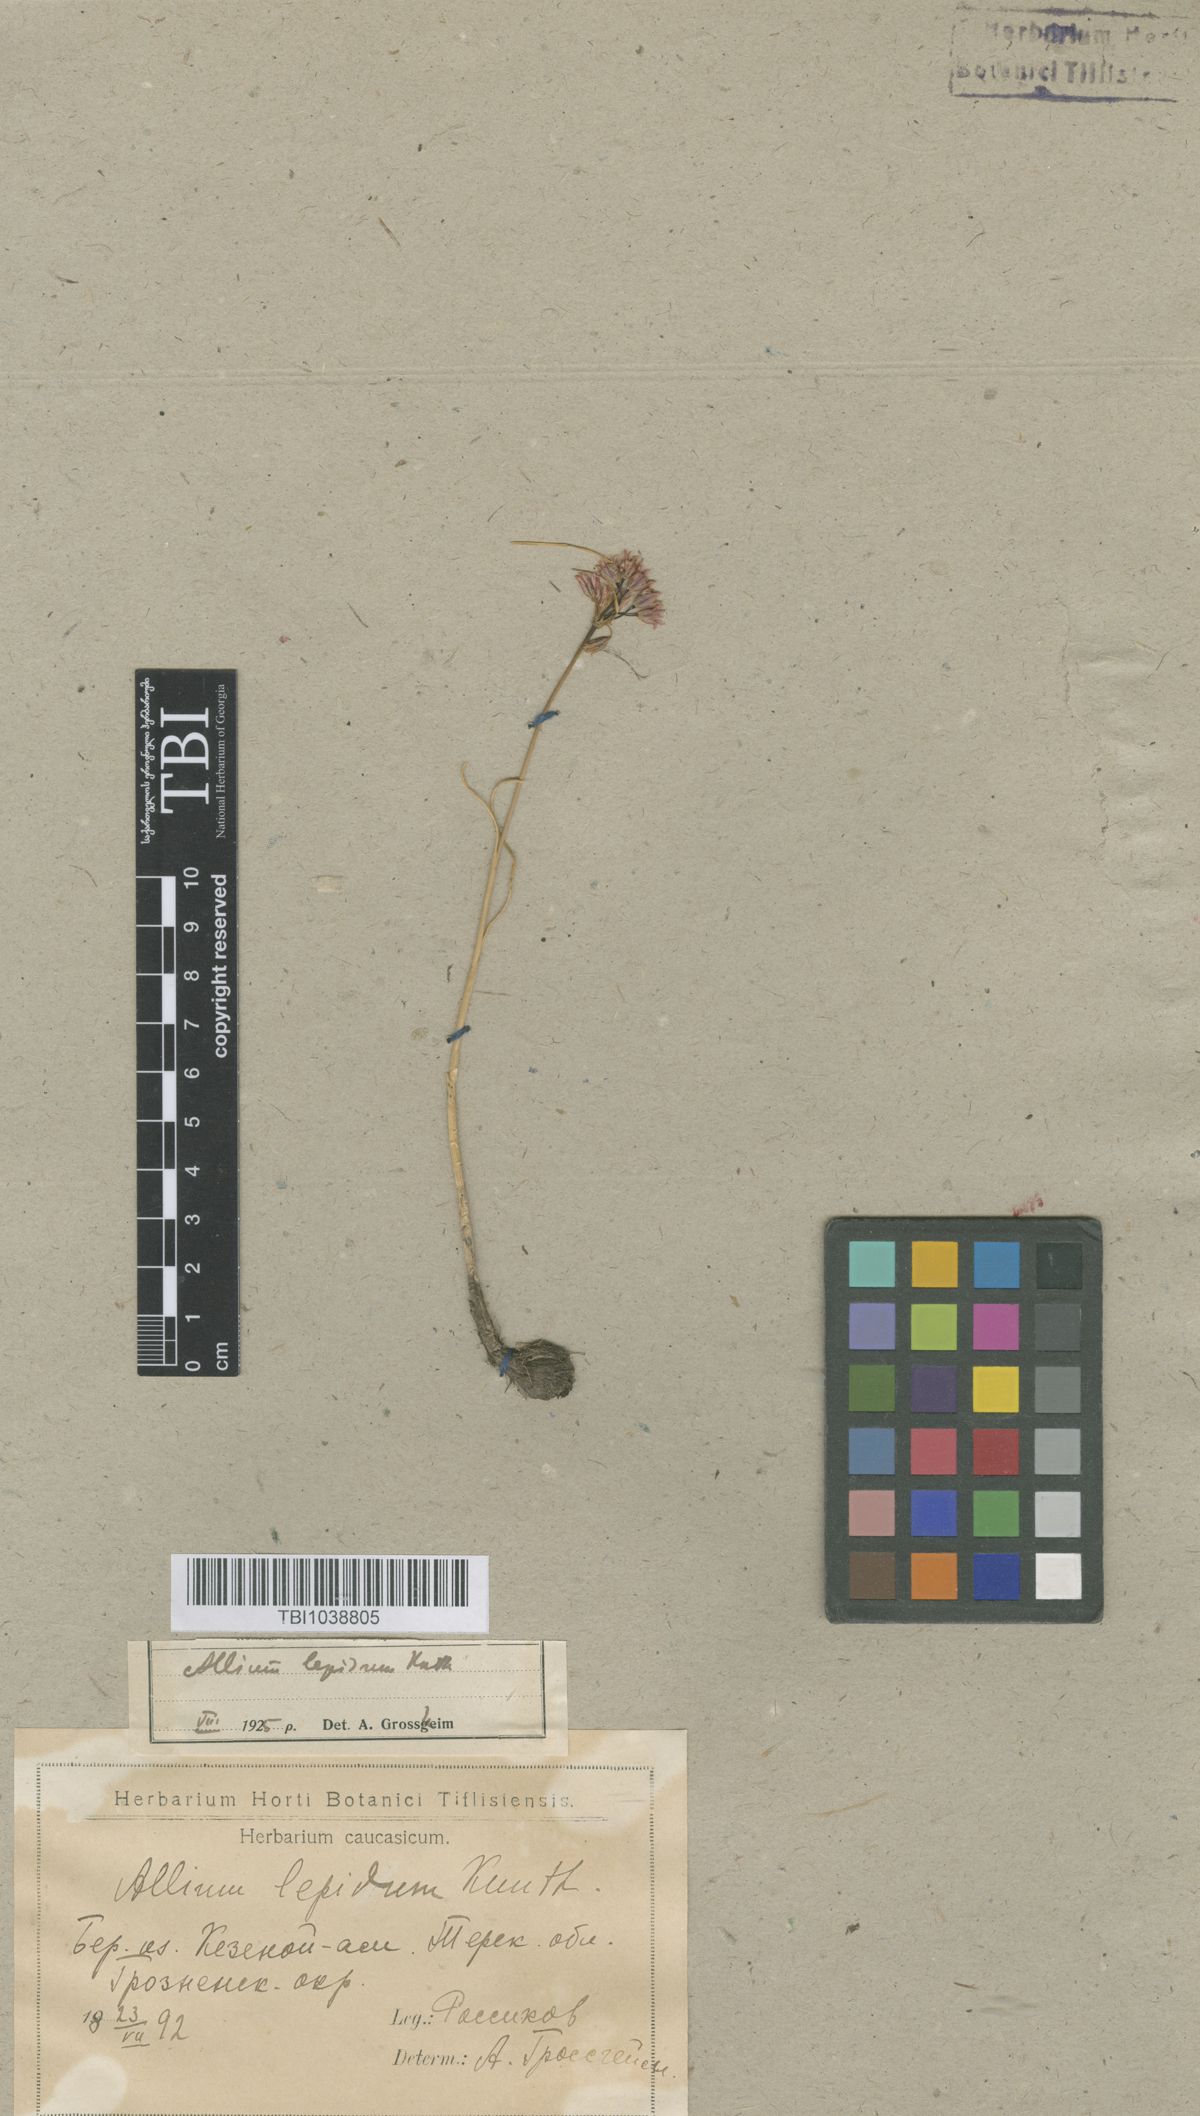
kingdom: Plantae
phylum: Tracheophyta
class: Liliopsida
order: Asparagales
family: Amaryllidaceae
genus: Allium
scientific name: Allium kunthianum
